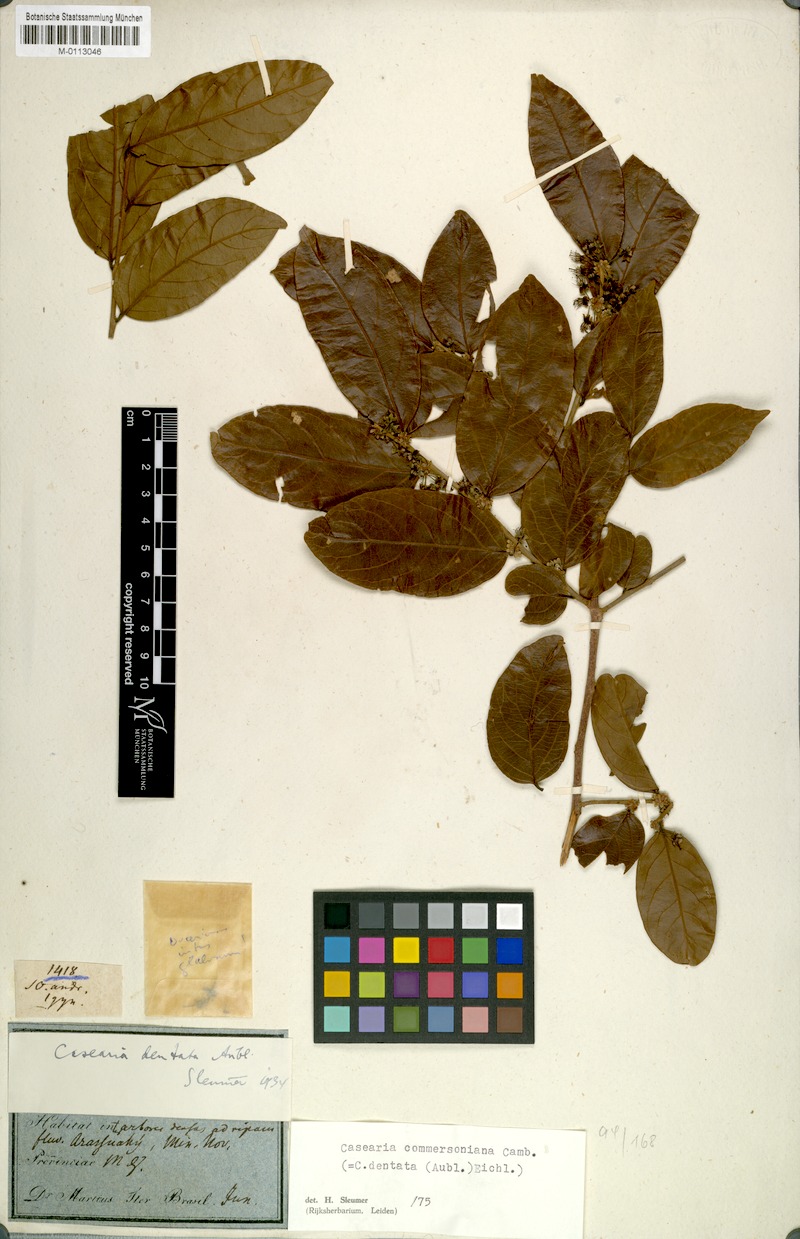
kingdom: Plantae
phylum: Tracheophyta
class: Magnoliopsida
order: Malpighiales
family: Salicaceae
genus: Piparea
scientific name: Piparea dentata
